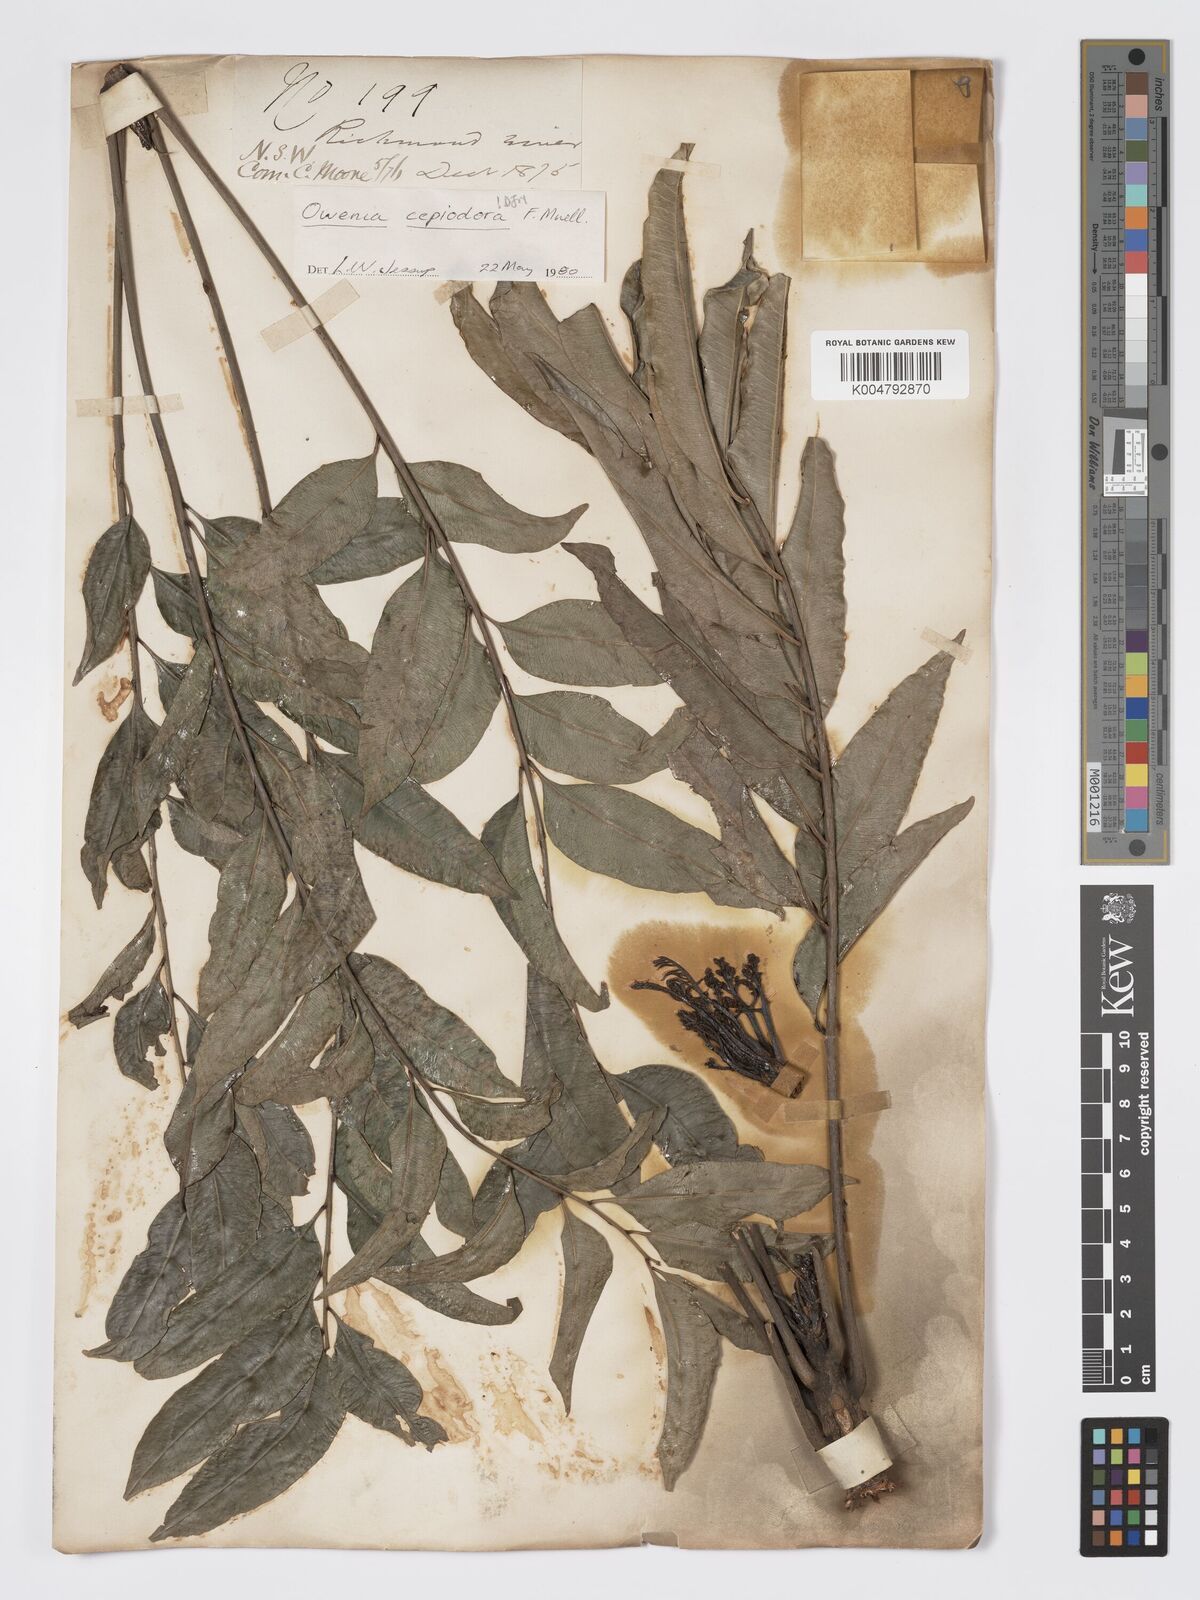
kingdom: Plantae
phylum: Tracheophyta
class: Magnoliopsida
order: Sapindales
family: Meliaceae
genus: Owenia
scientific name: Owenia cepiodora
